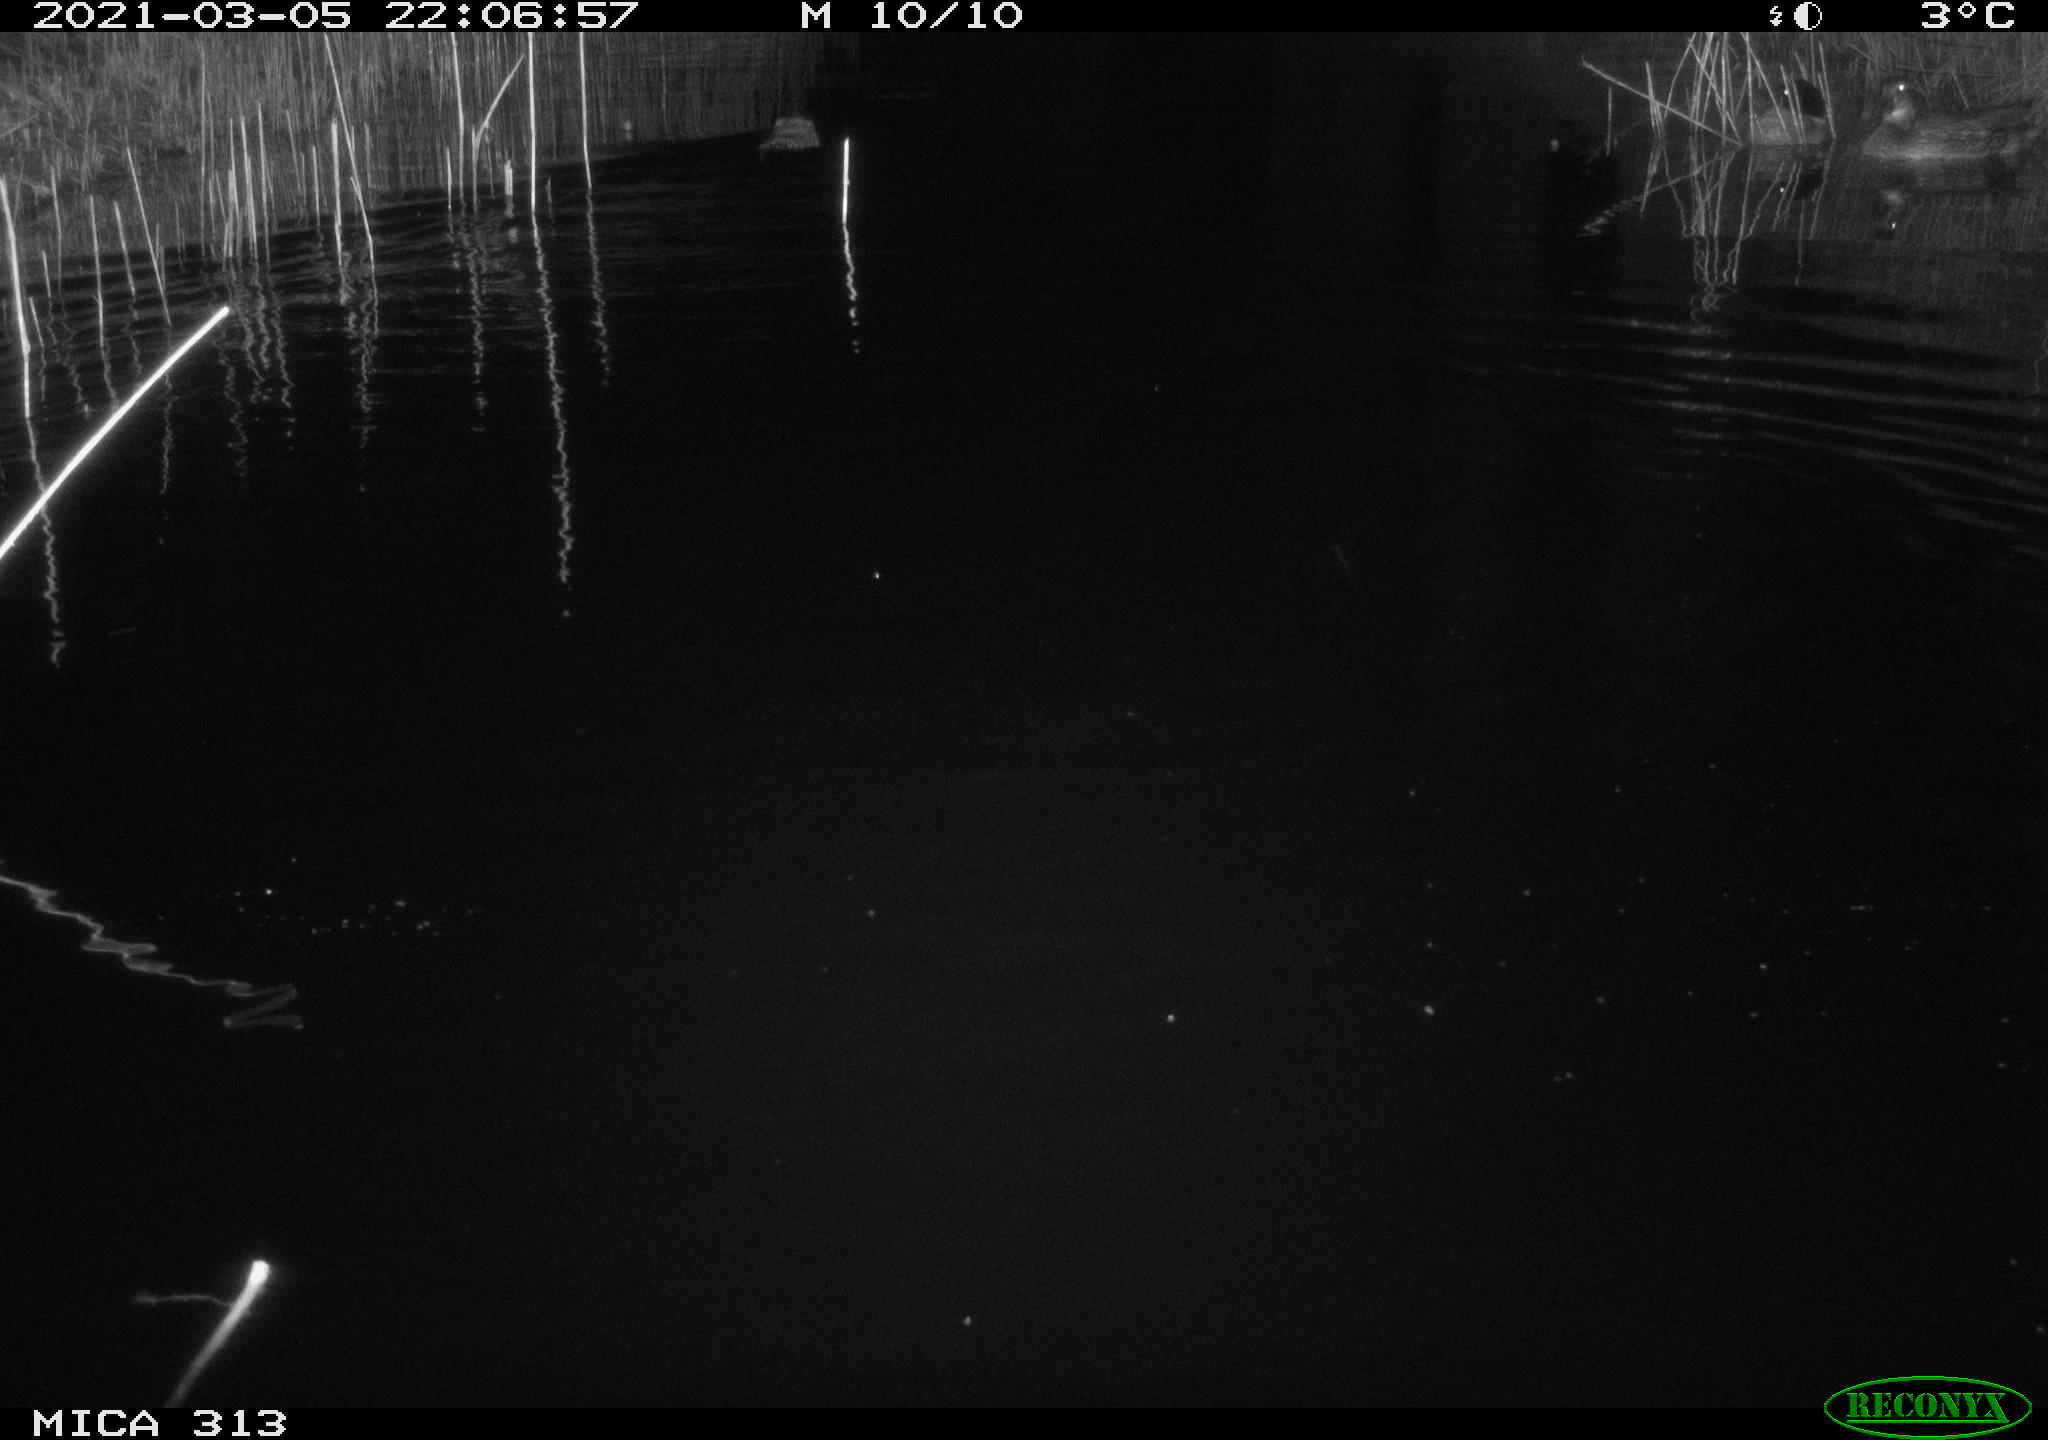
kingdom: Animalia
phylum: Chordata
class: Mammalia
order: Rodentia
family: Cricetidae
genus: Ondatra
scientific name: Ondatra zibethicus
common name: Muskrat
